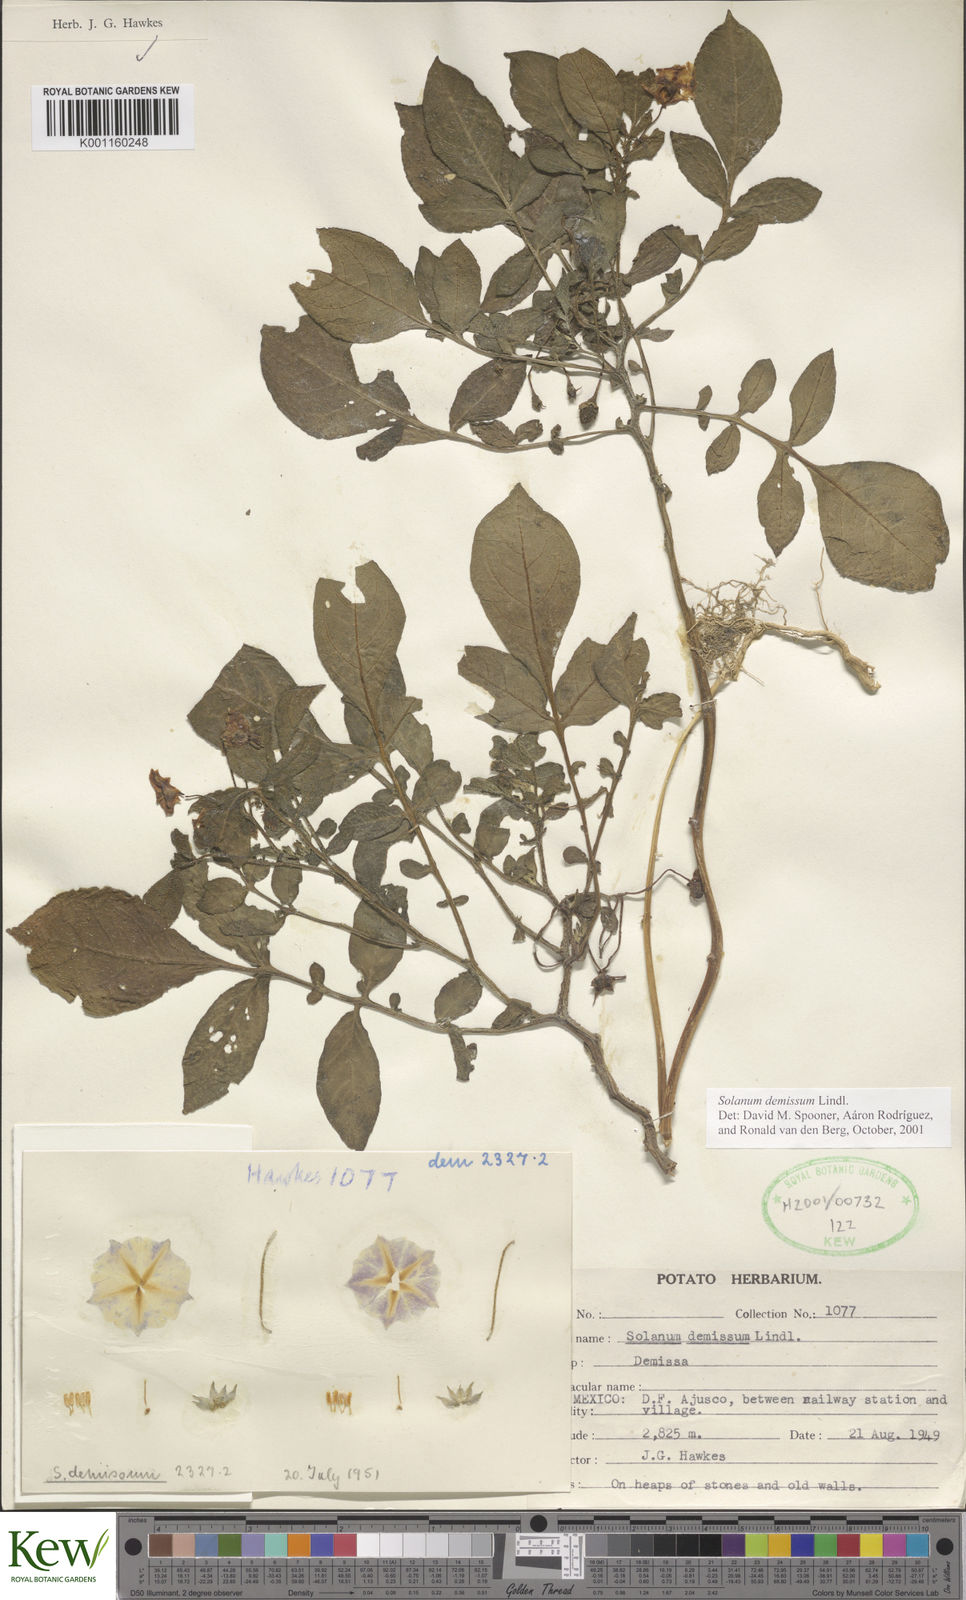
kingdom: Plantae
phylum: Tracheophyta
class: Magnoliopsida
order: Solanales
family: Solanaceae
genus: Solanum
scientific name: Solanum demissum
